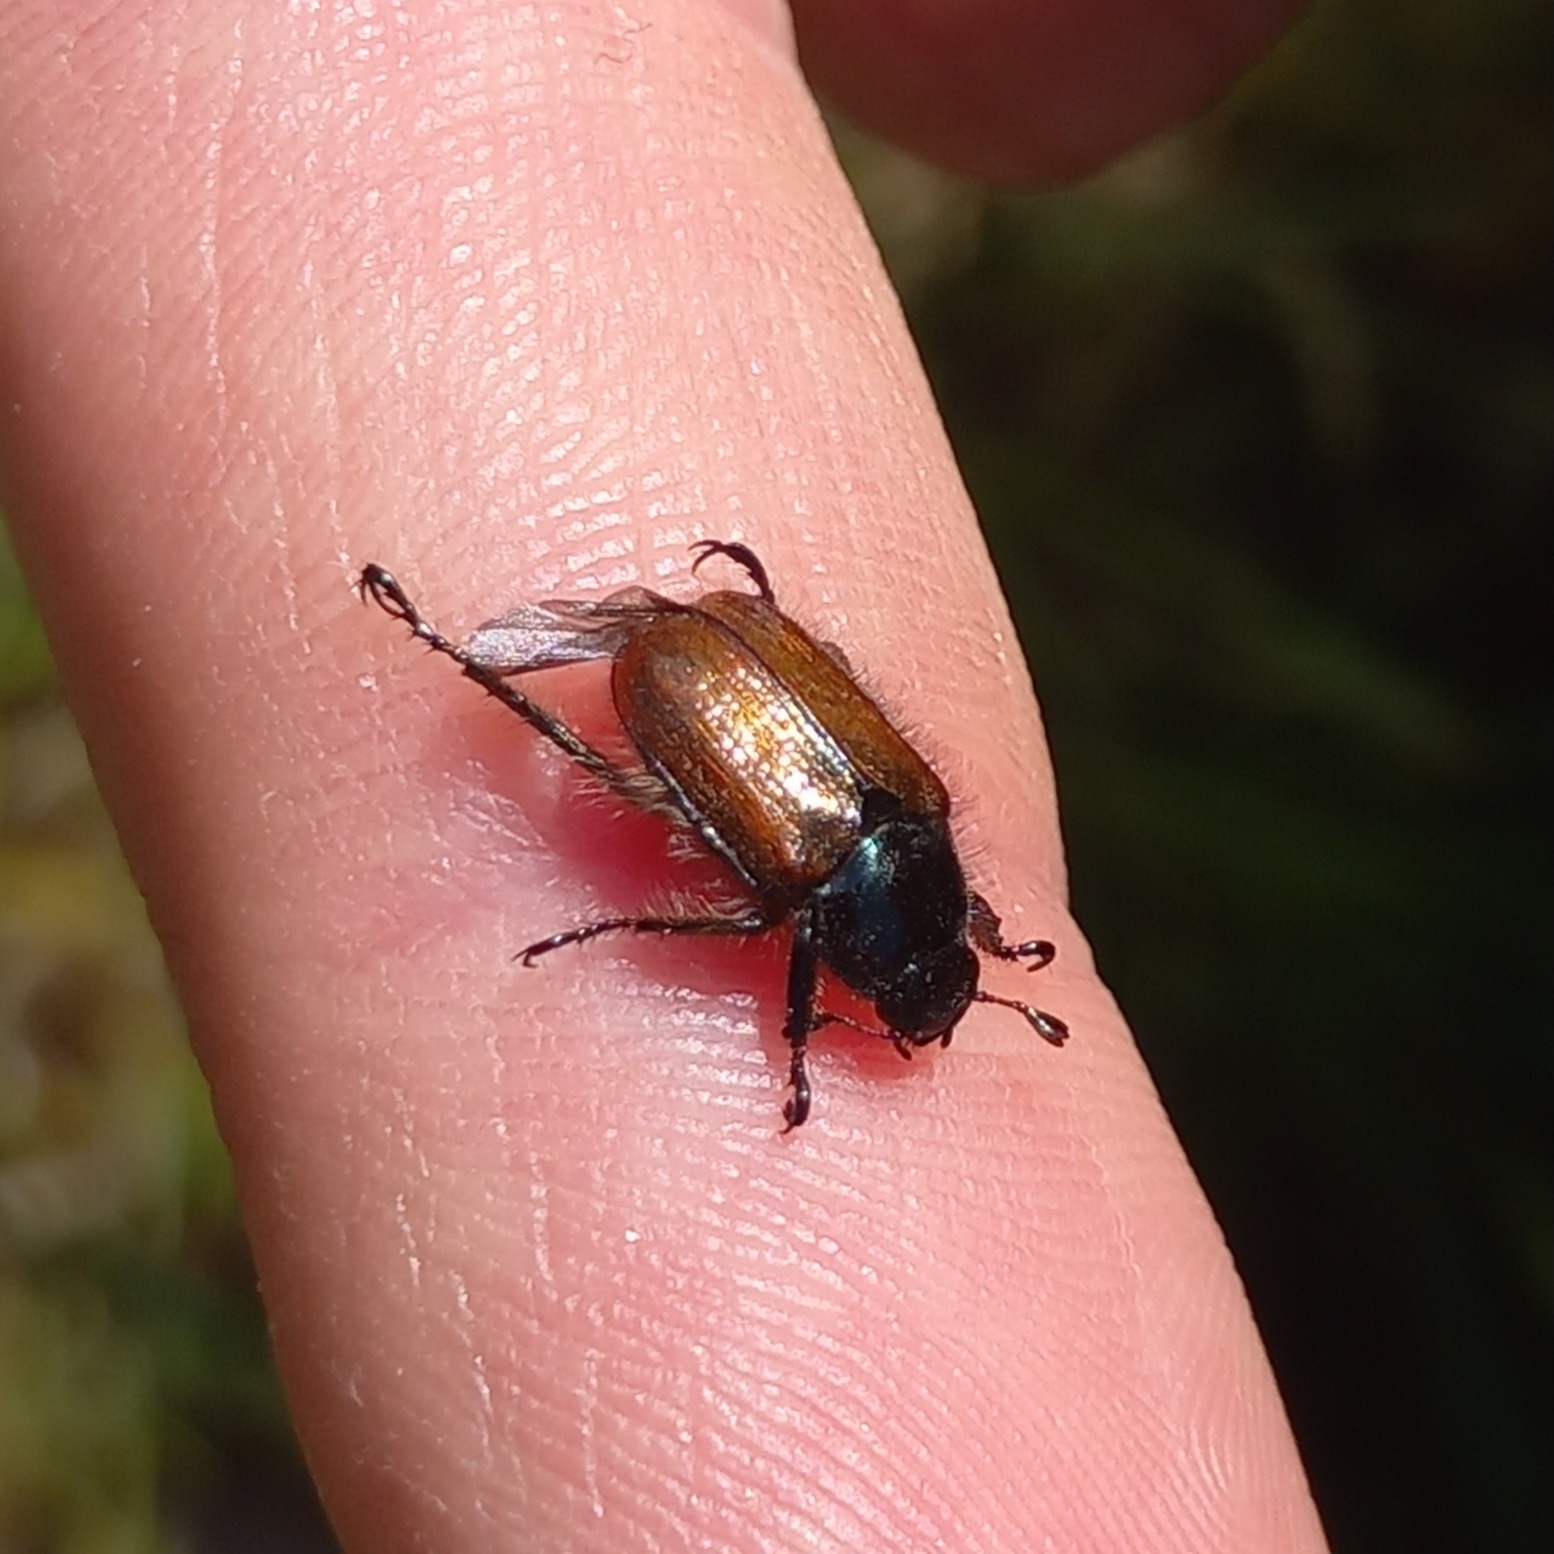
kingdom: Animalia
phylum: Arthropoda
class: Insecta
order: Coleoptera
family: Scarabaeidae
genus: Phyllopertha
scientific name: Phyllopertha horticola
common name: Gåsebille
